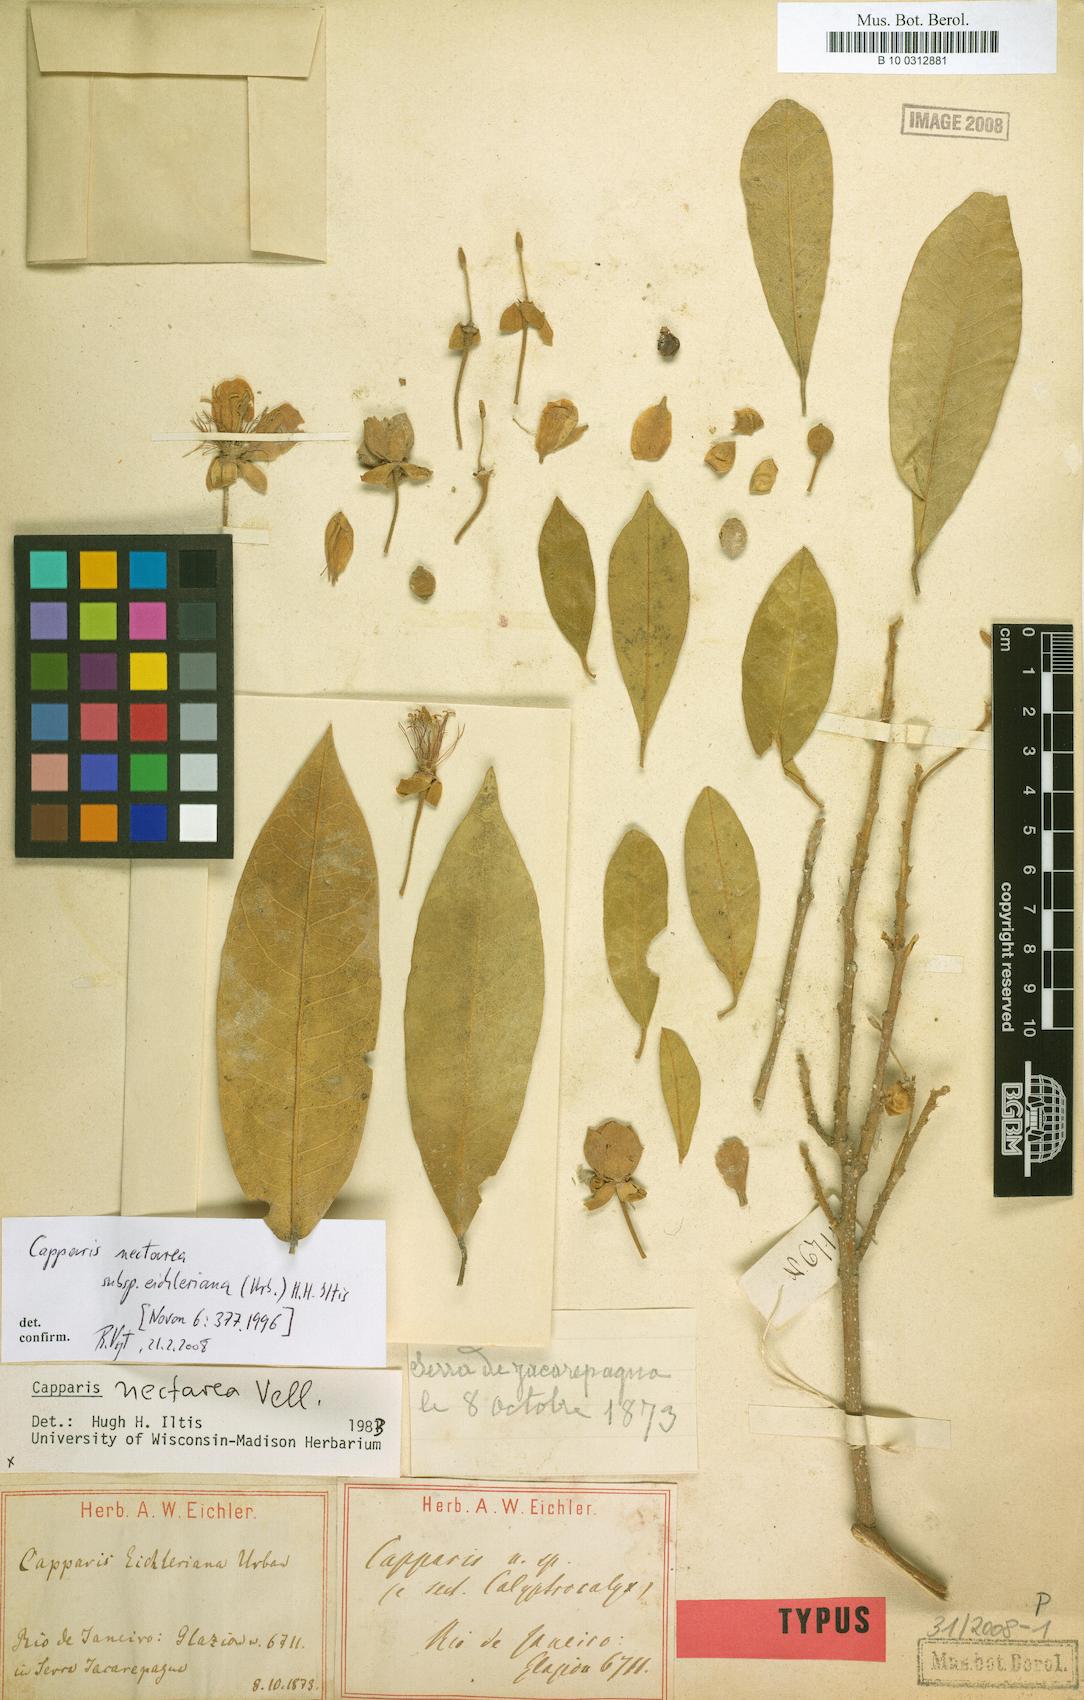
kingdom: Plantae
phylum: Tracheophyta
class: Magnoliopsida
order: Brassicales
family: Capparaceae
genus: Neocalyptrocalyx
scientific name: Neocalyptrocalyx eichleriana
